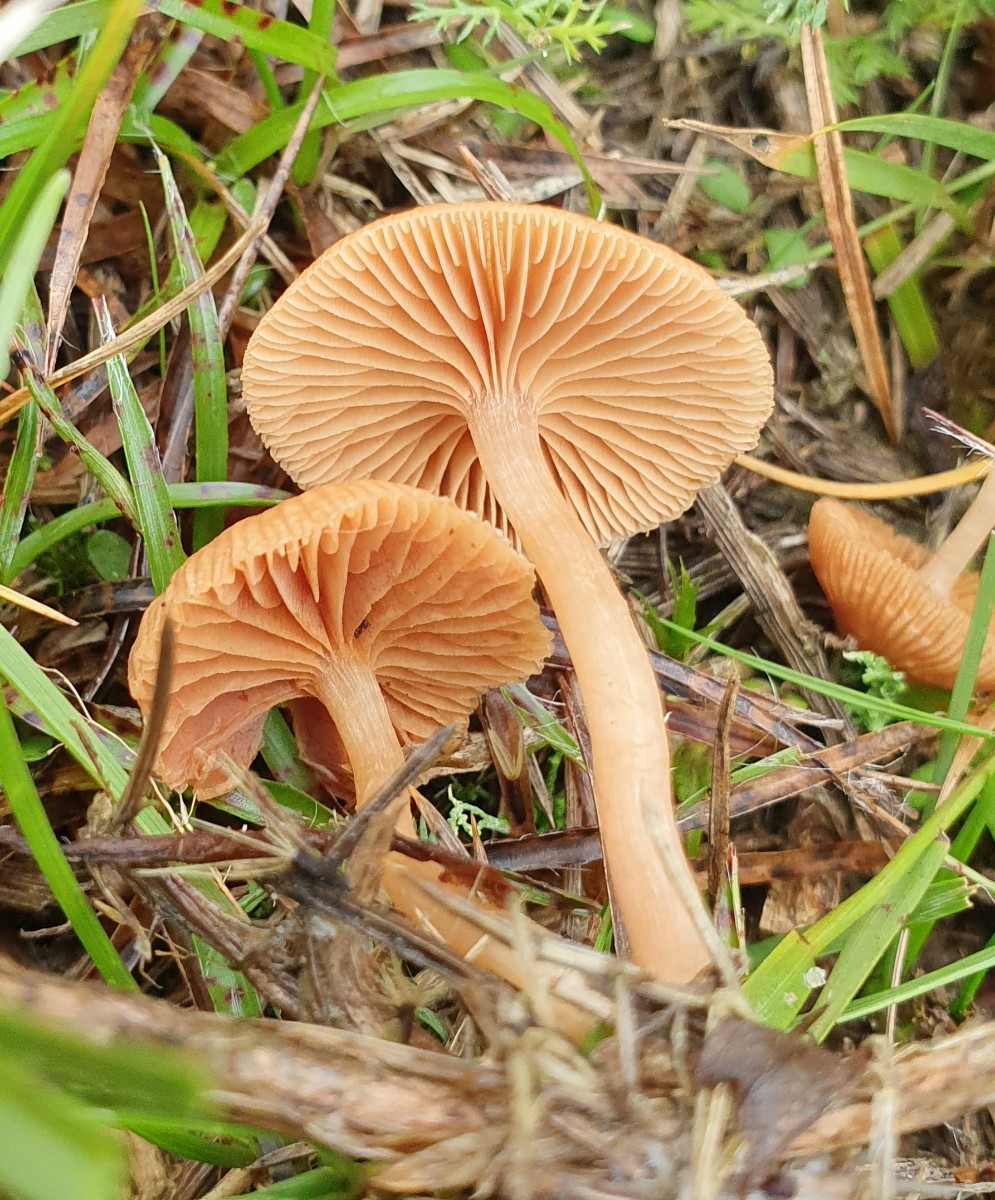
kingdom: Fungi
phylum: Basidiomycota
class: Agaricomycetes
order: Agaricales
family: Tubariaceae
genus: Tubaria
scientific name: Tubaria furfuracea
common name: kliddet fnughat
